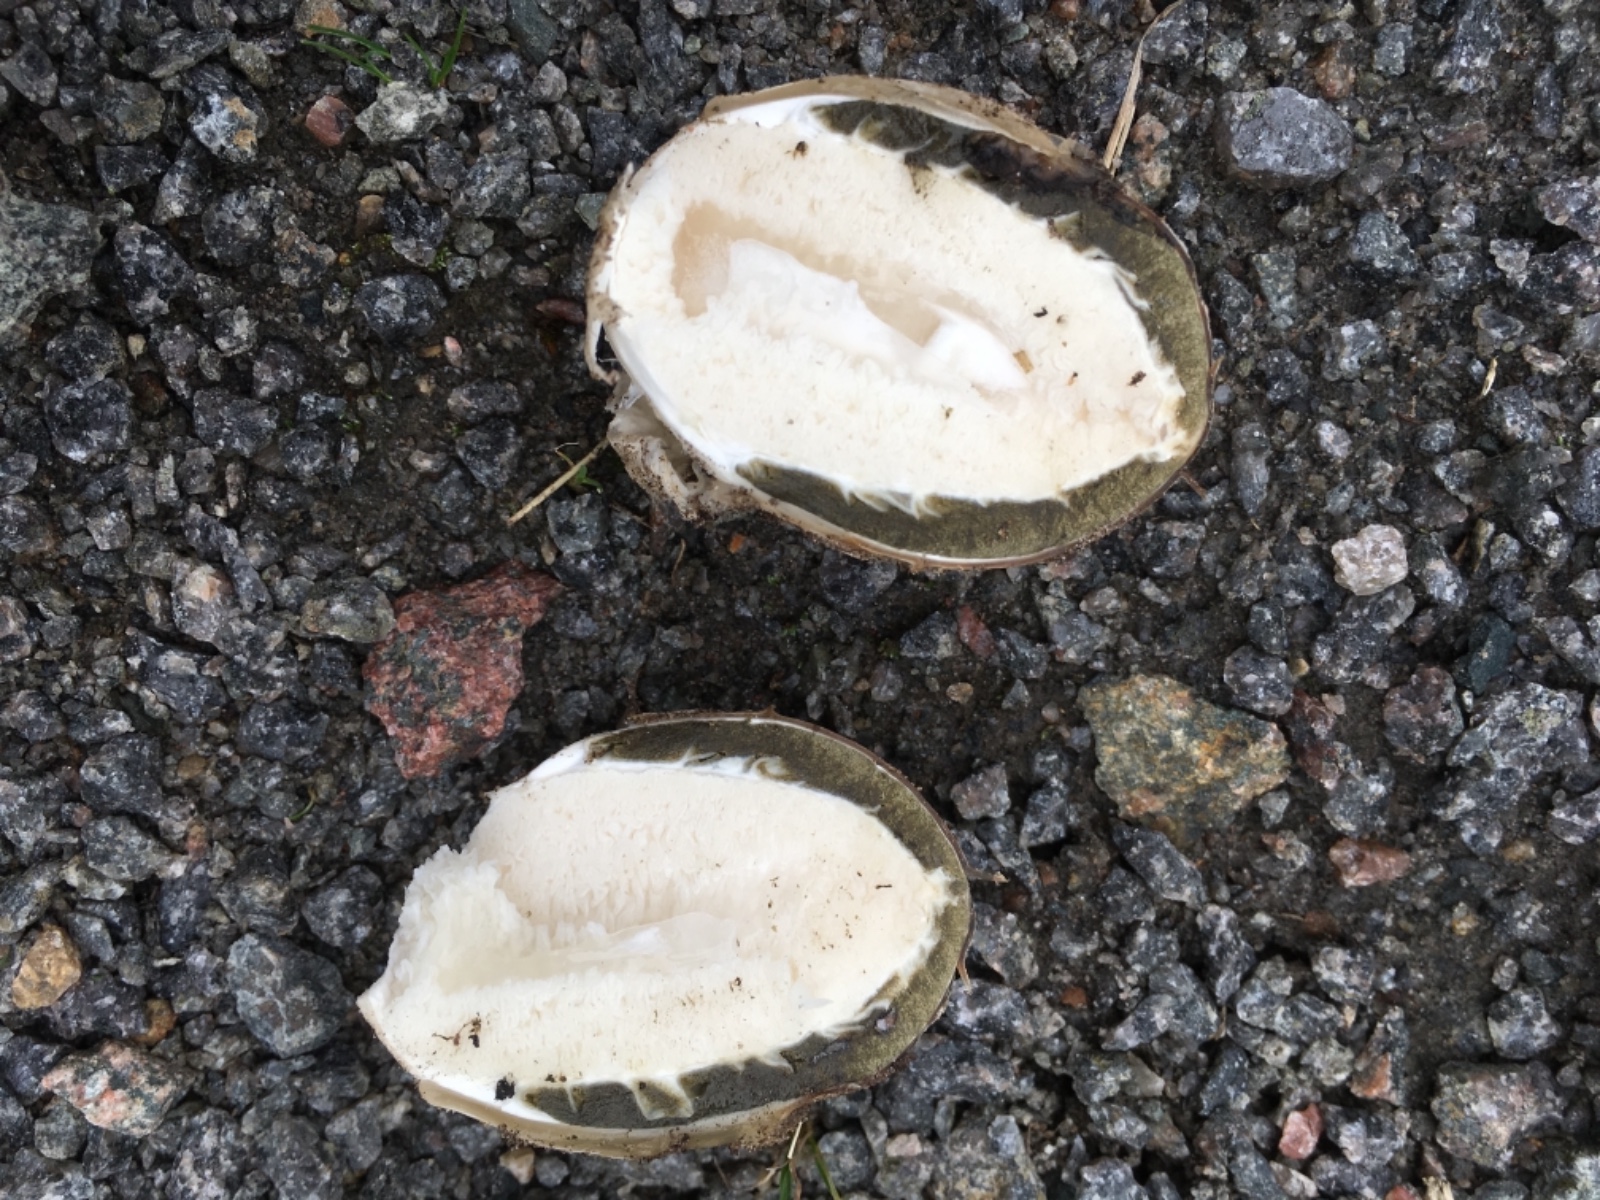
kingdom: Fungi
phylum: Basidiomycota
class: Agaricomycetes
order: Phallales
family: Phallaceae
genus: Phallus
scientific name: Phallus impudicus
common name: almindelig stinksvamp
